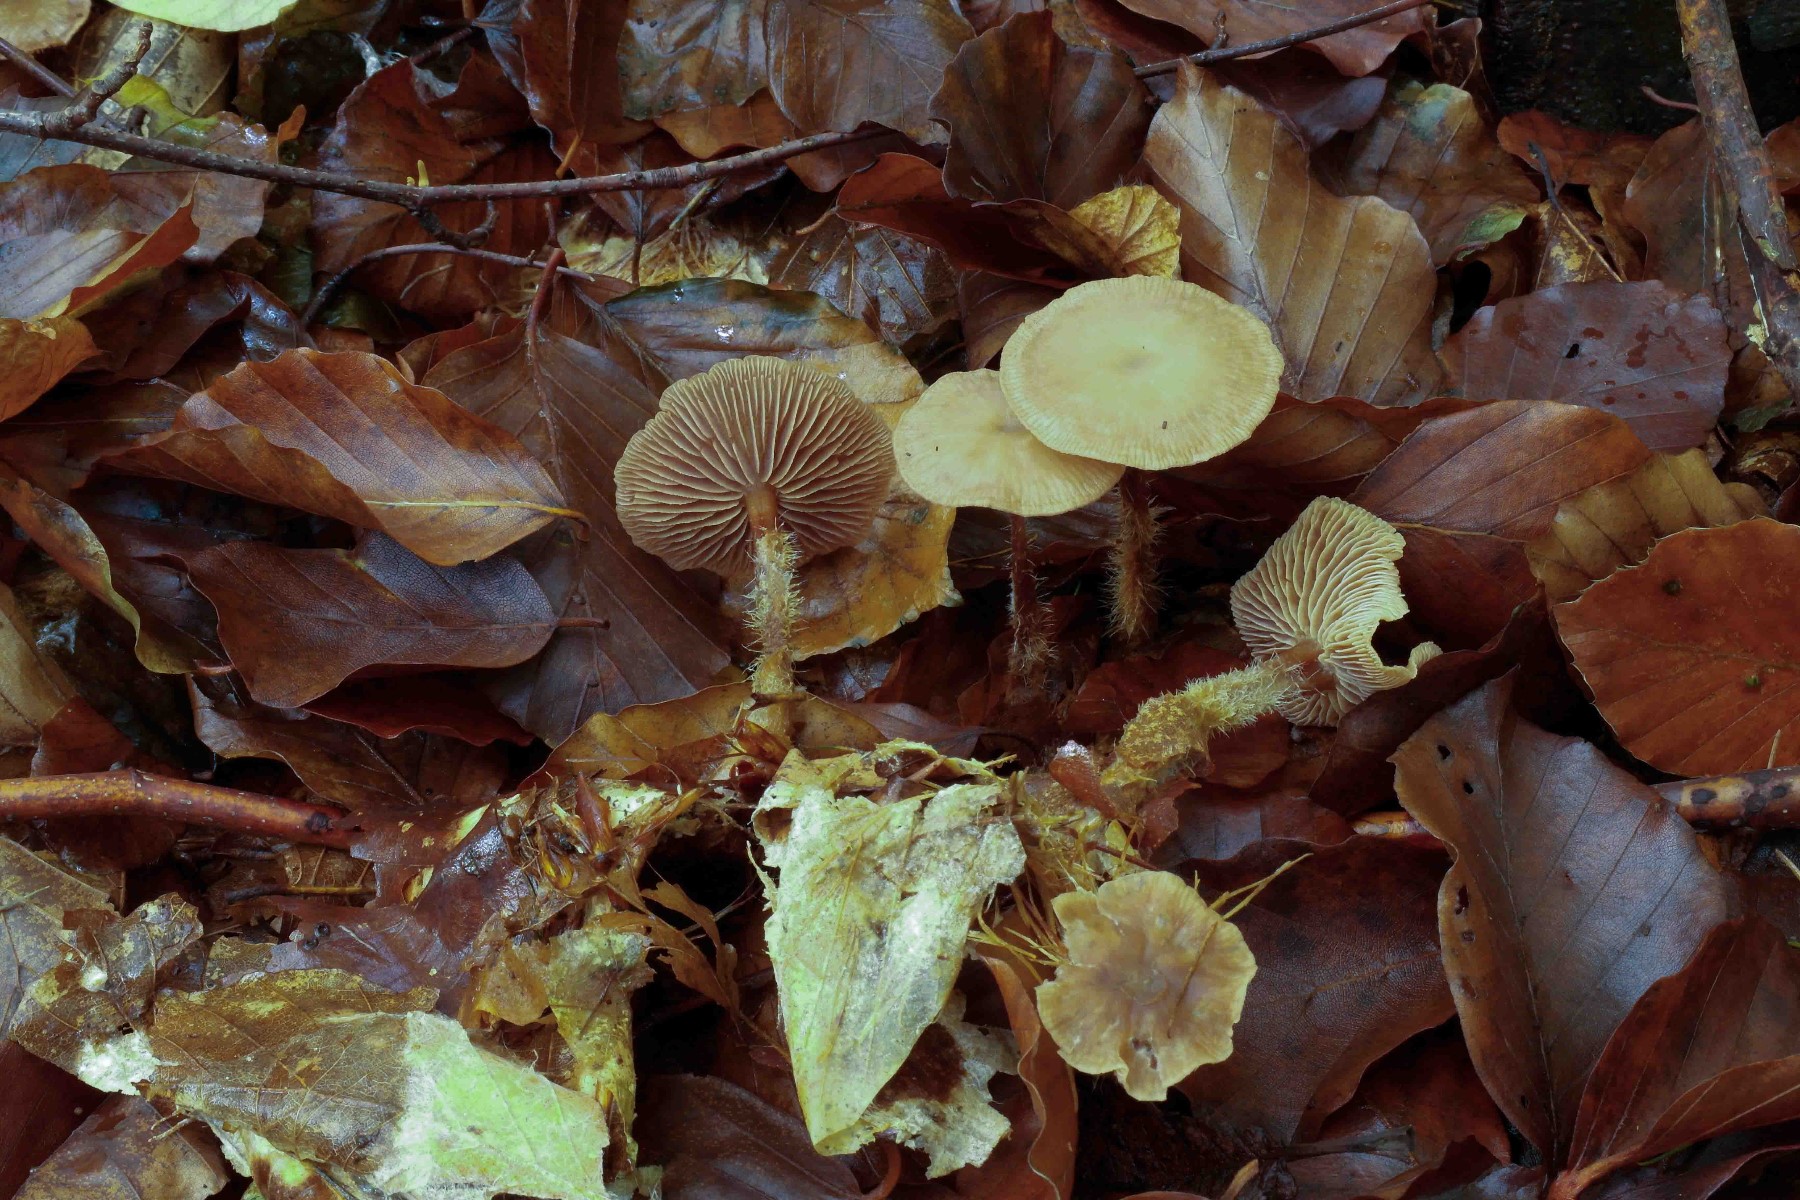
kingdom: Fungi
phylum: Basidiomycota
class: Agaricomycetes
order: Agaricales
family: Omphalotaceae
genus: Gymnopus
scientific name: Gymnopus fagiphilus
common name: bøgeløv-fladhat
